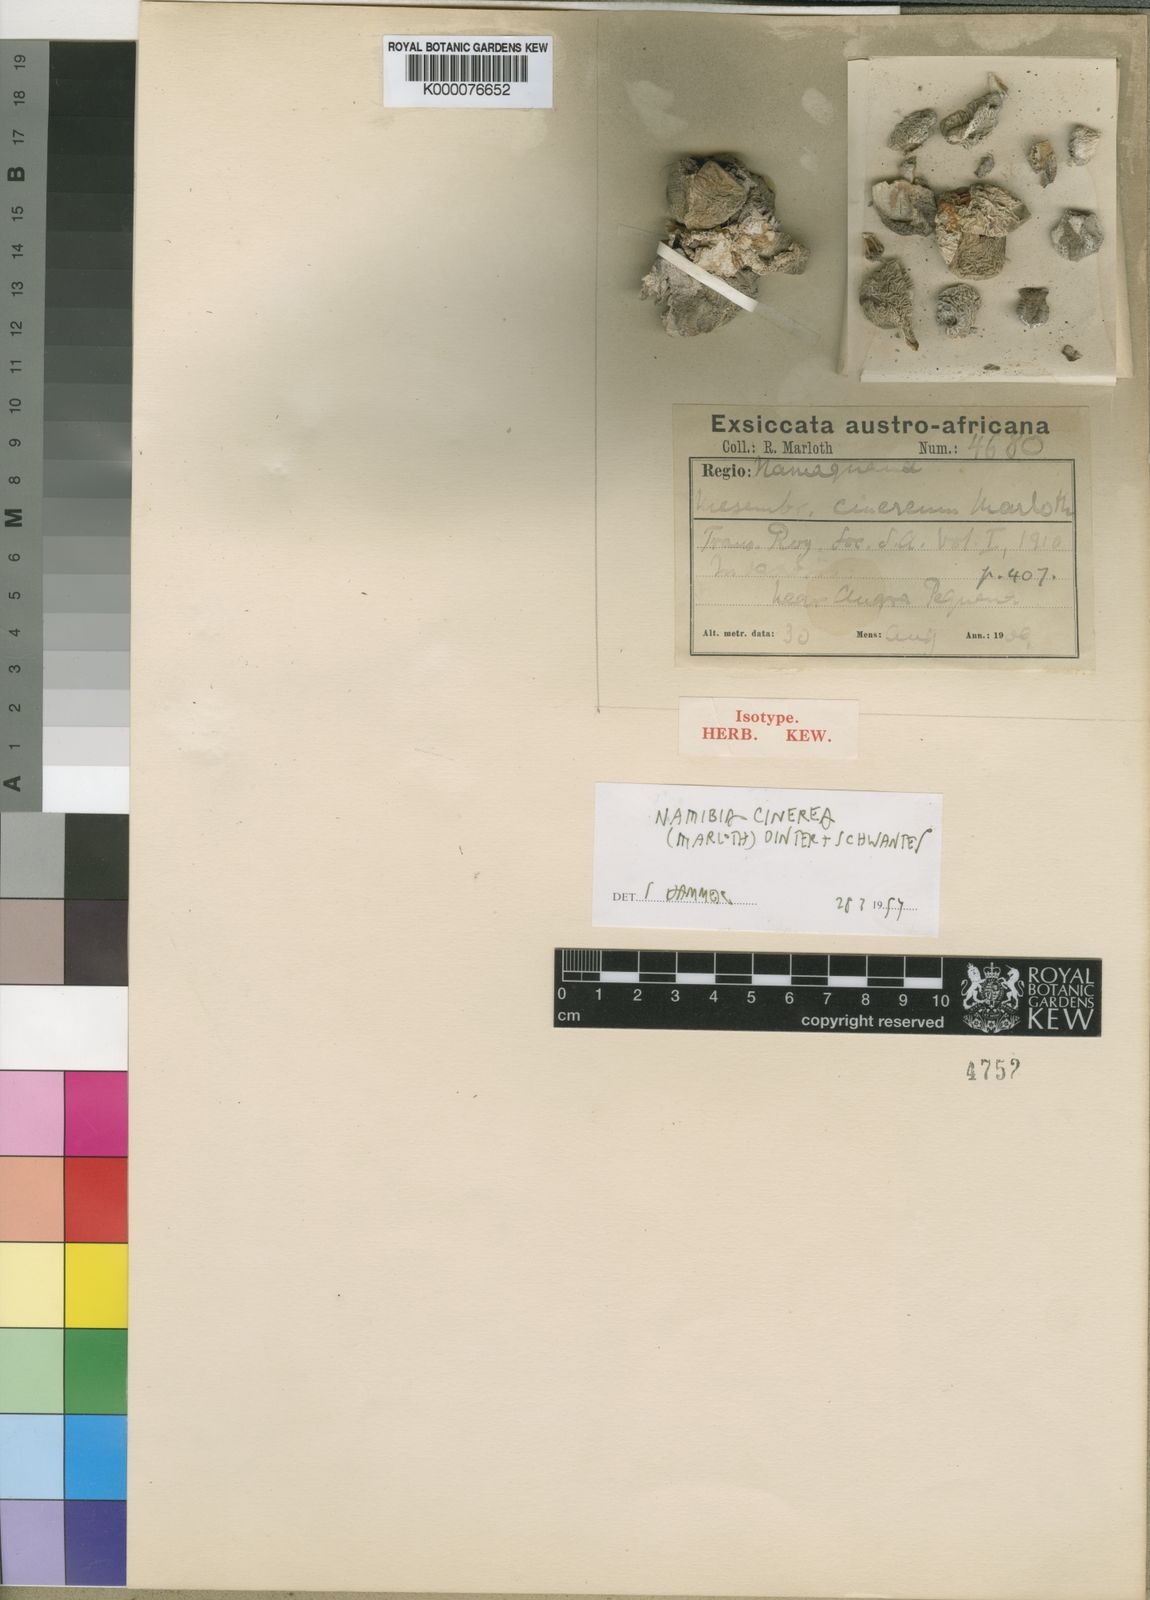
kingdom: Plantae
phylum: Tracheophyta
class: Magnoliopsida
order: Caryophyllales
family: Aizoaceae
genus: Dracophilus
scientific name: Dracophilus Namibia cinerea
